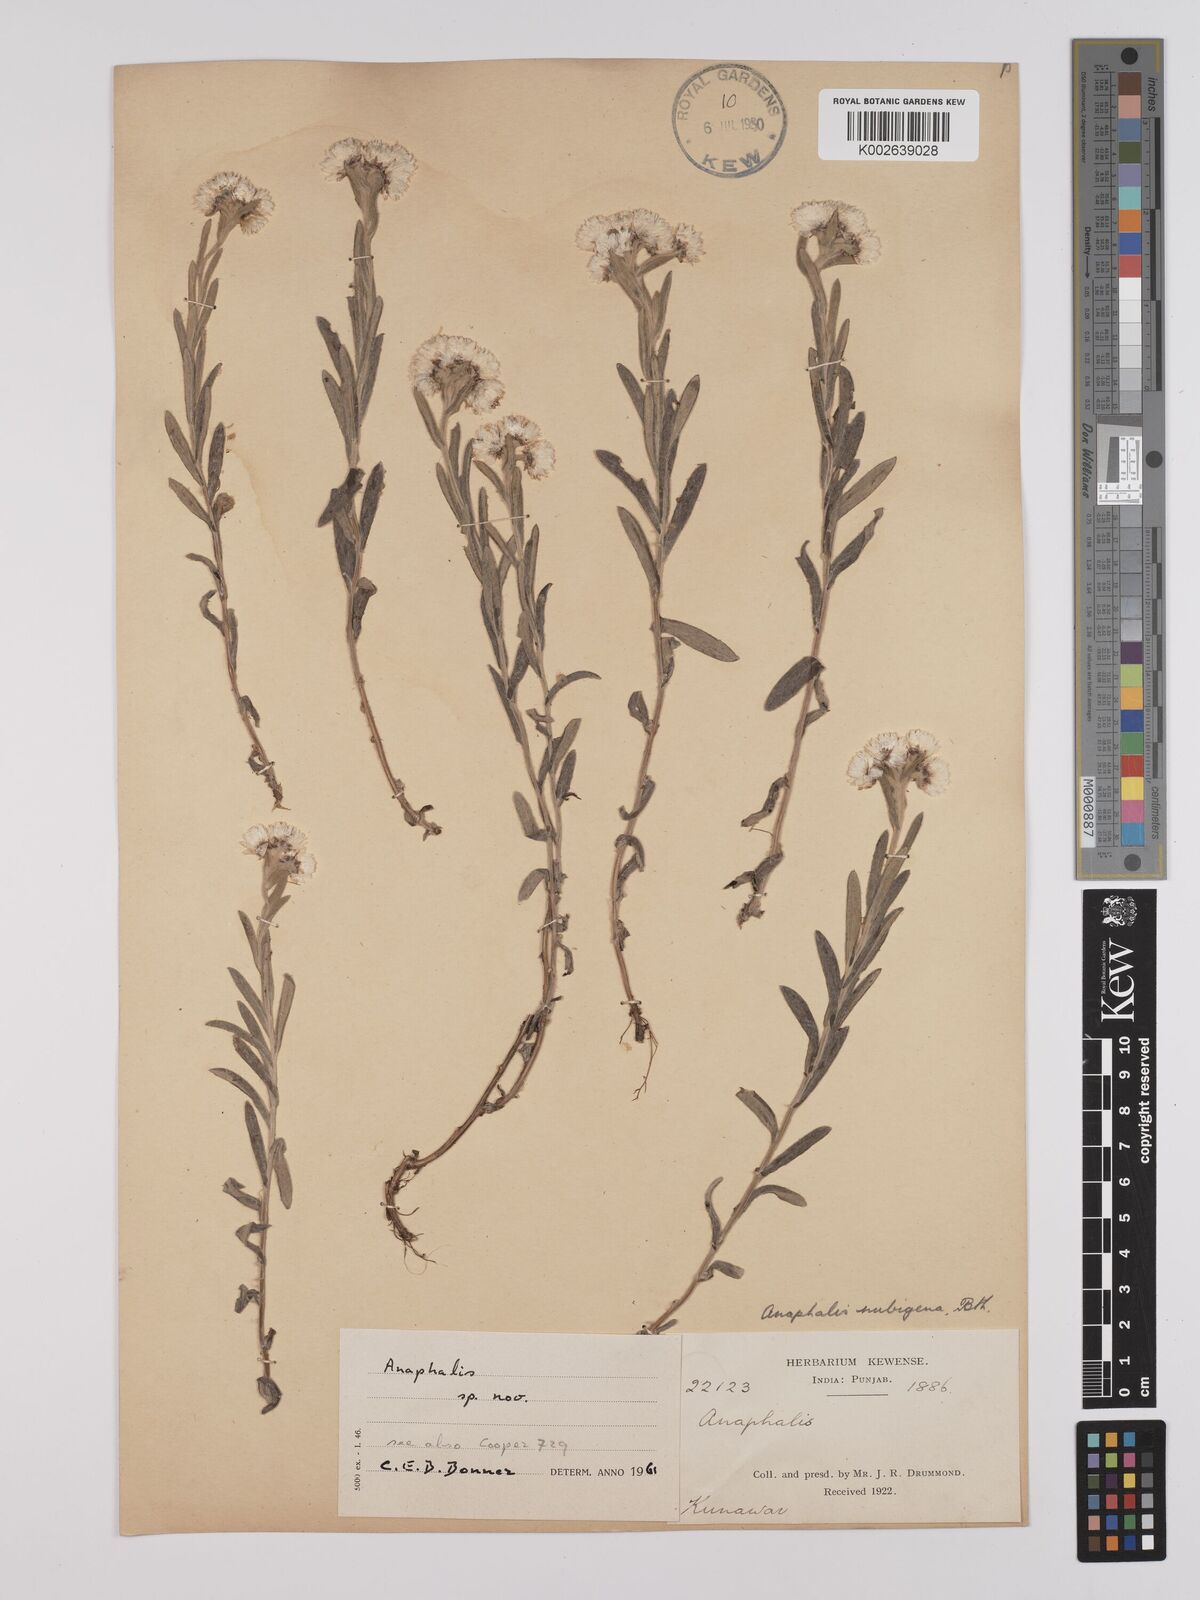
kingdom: Plantae
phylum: Tracheophyta
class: Magnoliopsida
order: Asterales
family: Asteraceae
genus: Anaphalis
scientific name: Anaphalis nepalensis
